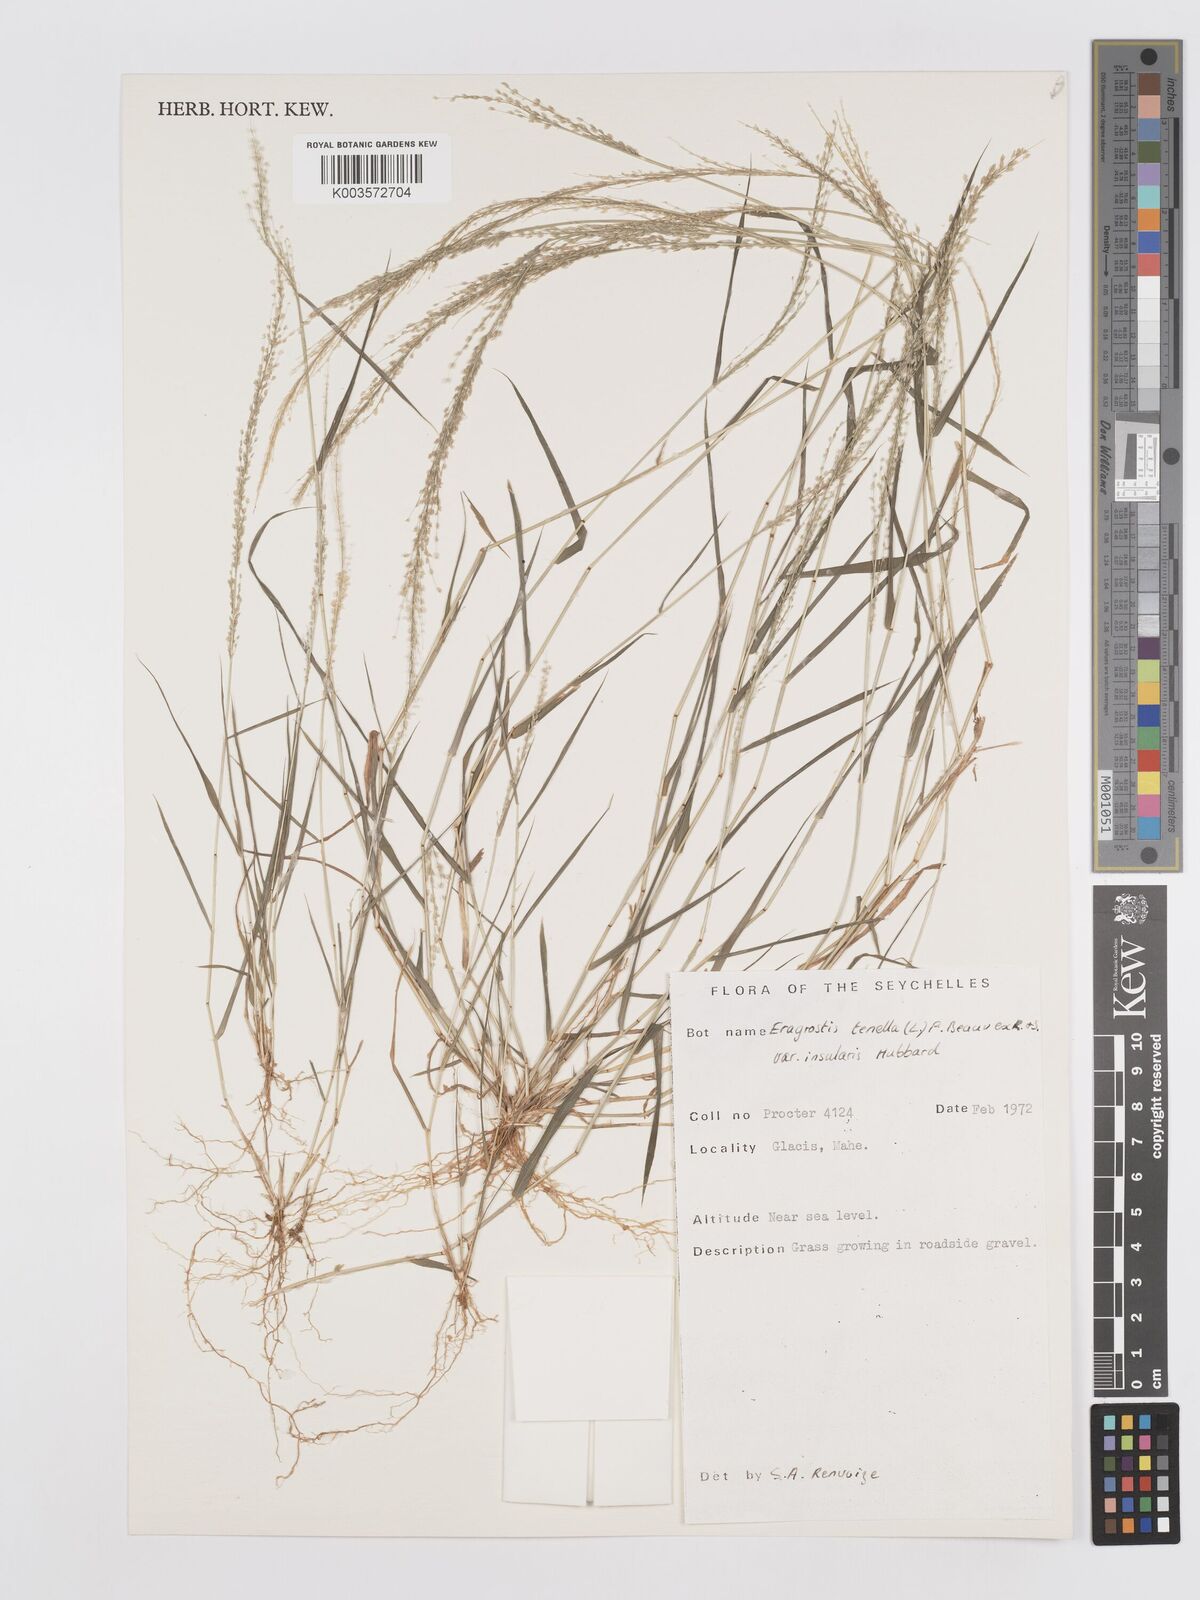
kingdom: Plantae
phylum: Tracheophyta
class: Liliopsida
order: Poales
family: Poaceae
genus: Eragrostis
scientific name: Eragrostis tenella
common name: Japanese lovegrass
